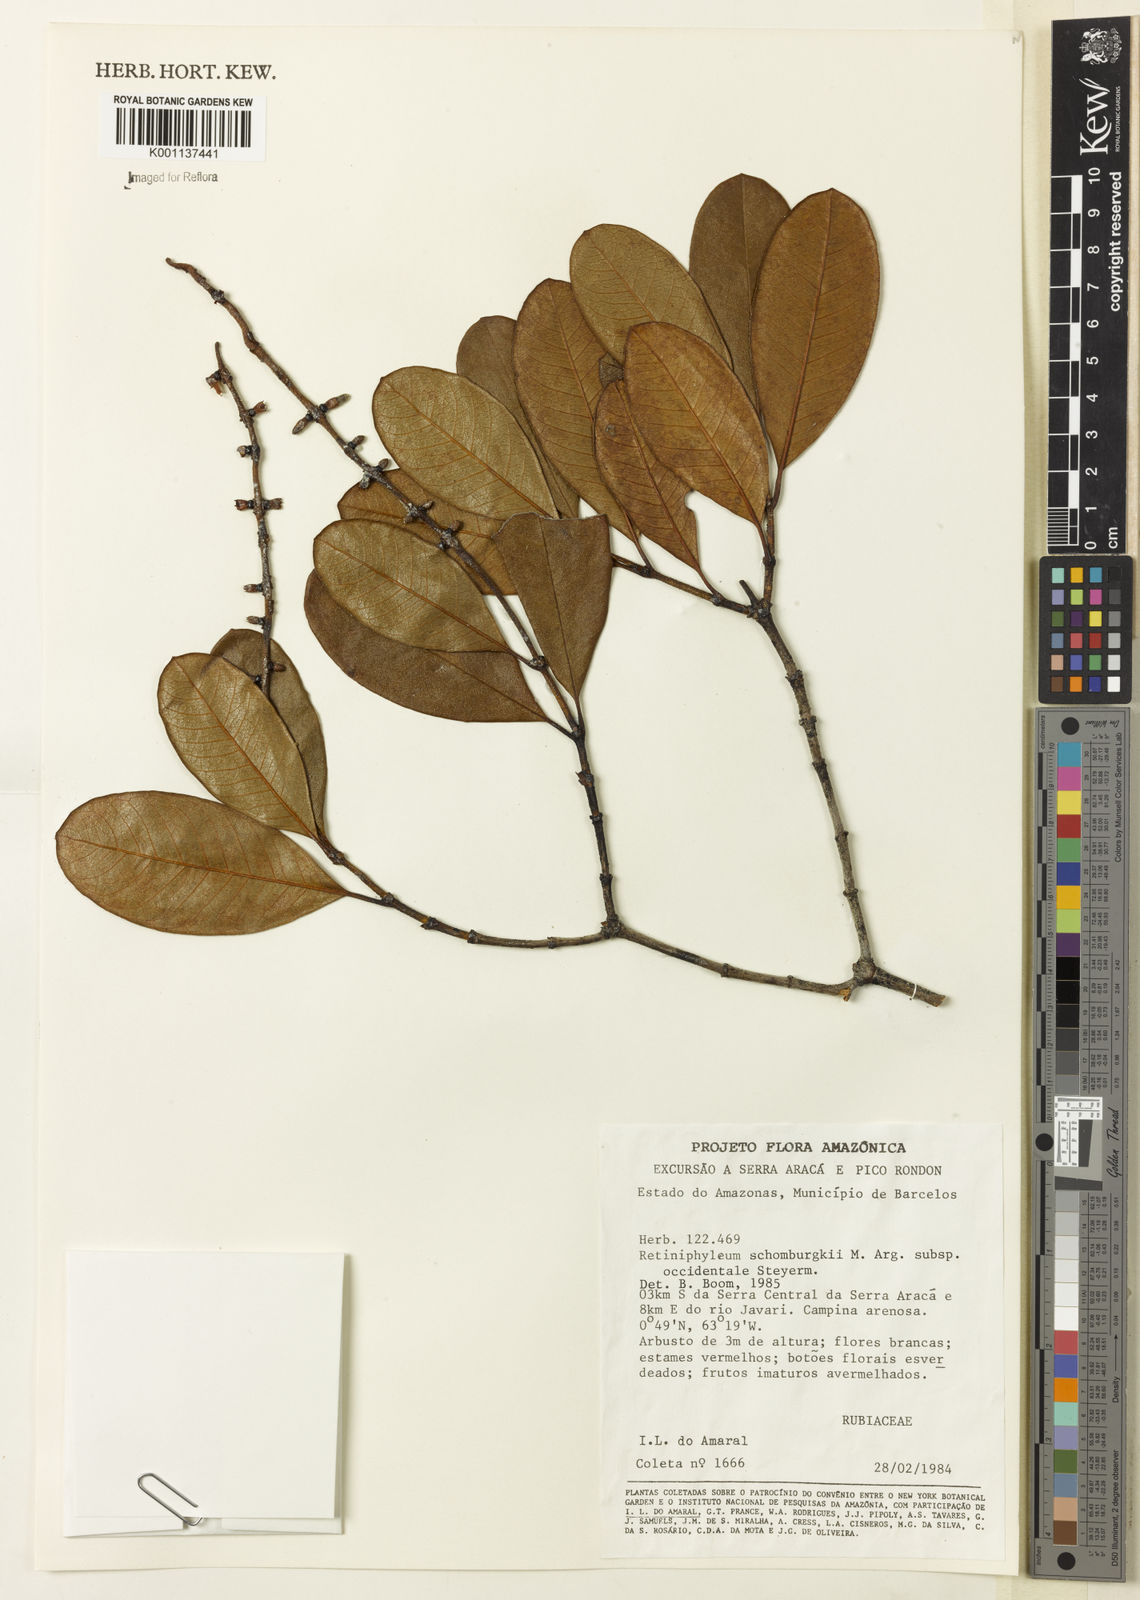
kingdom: Plantae
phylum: Tracheophyta
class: Magnoliopsida
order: Gentianales
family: Rubiaceae
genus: Retiniphyllum
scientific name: Retiniphyllum
